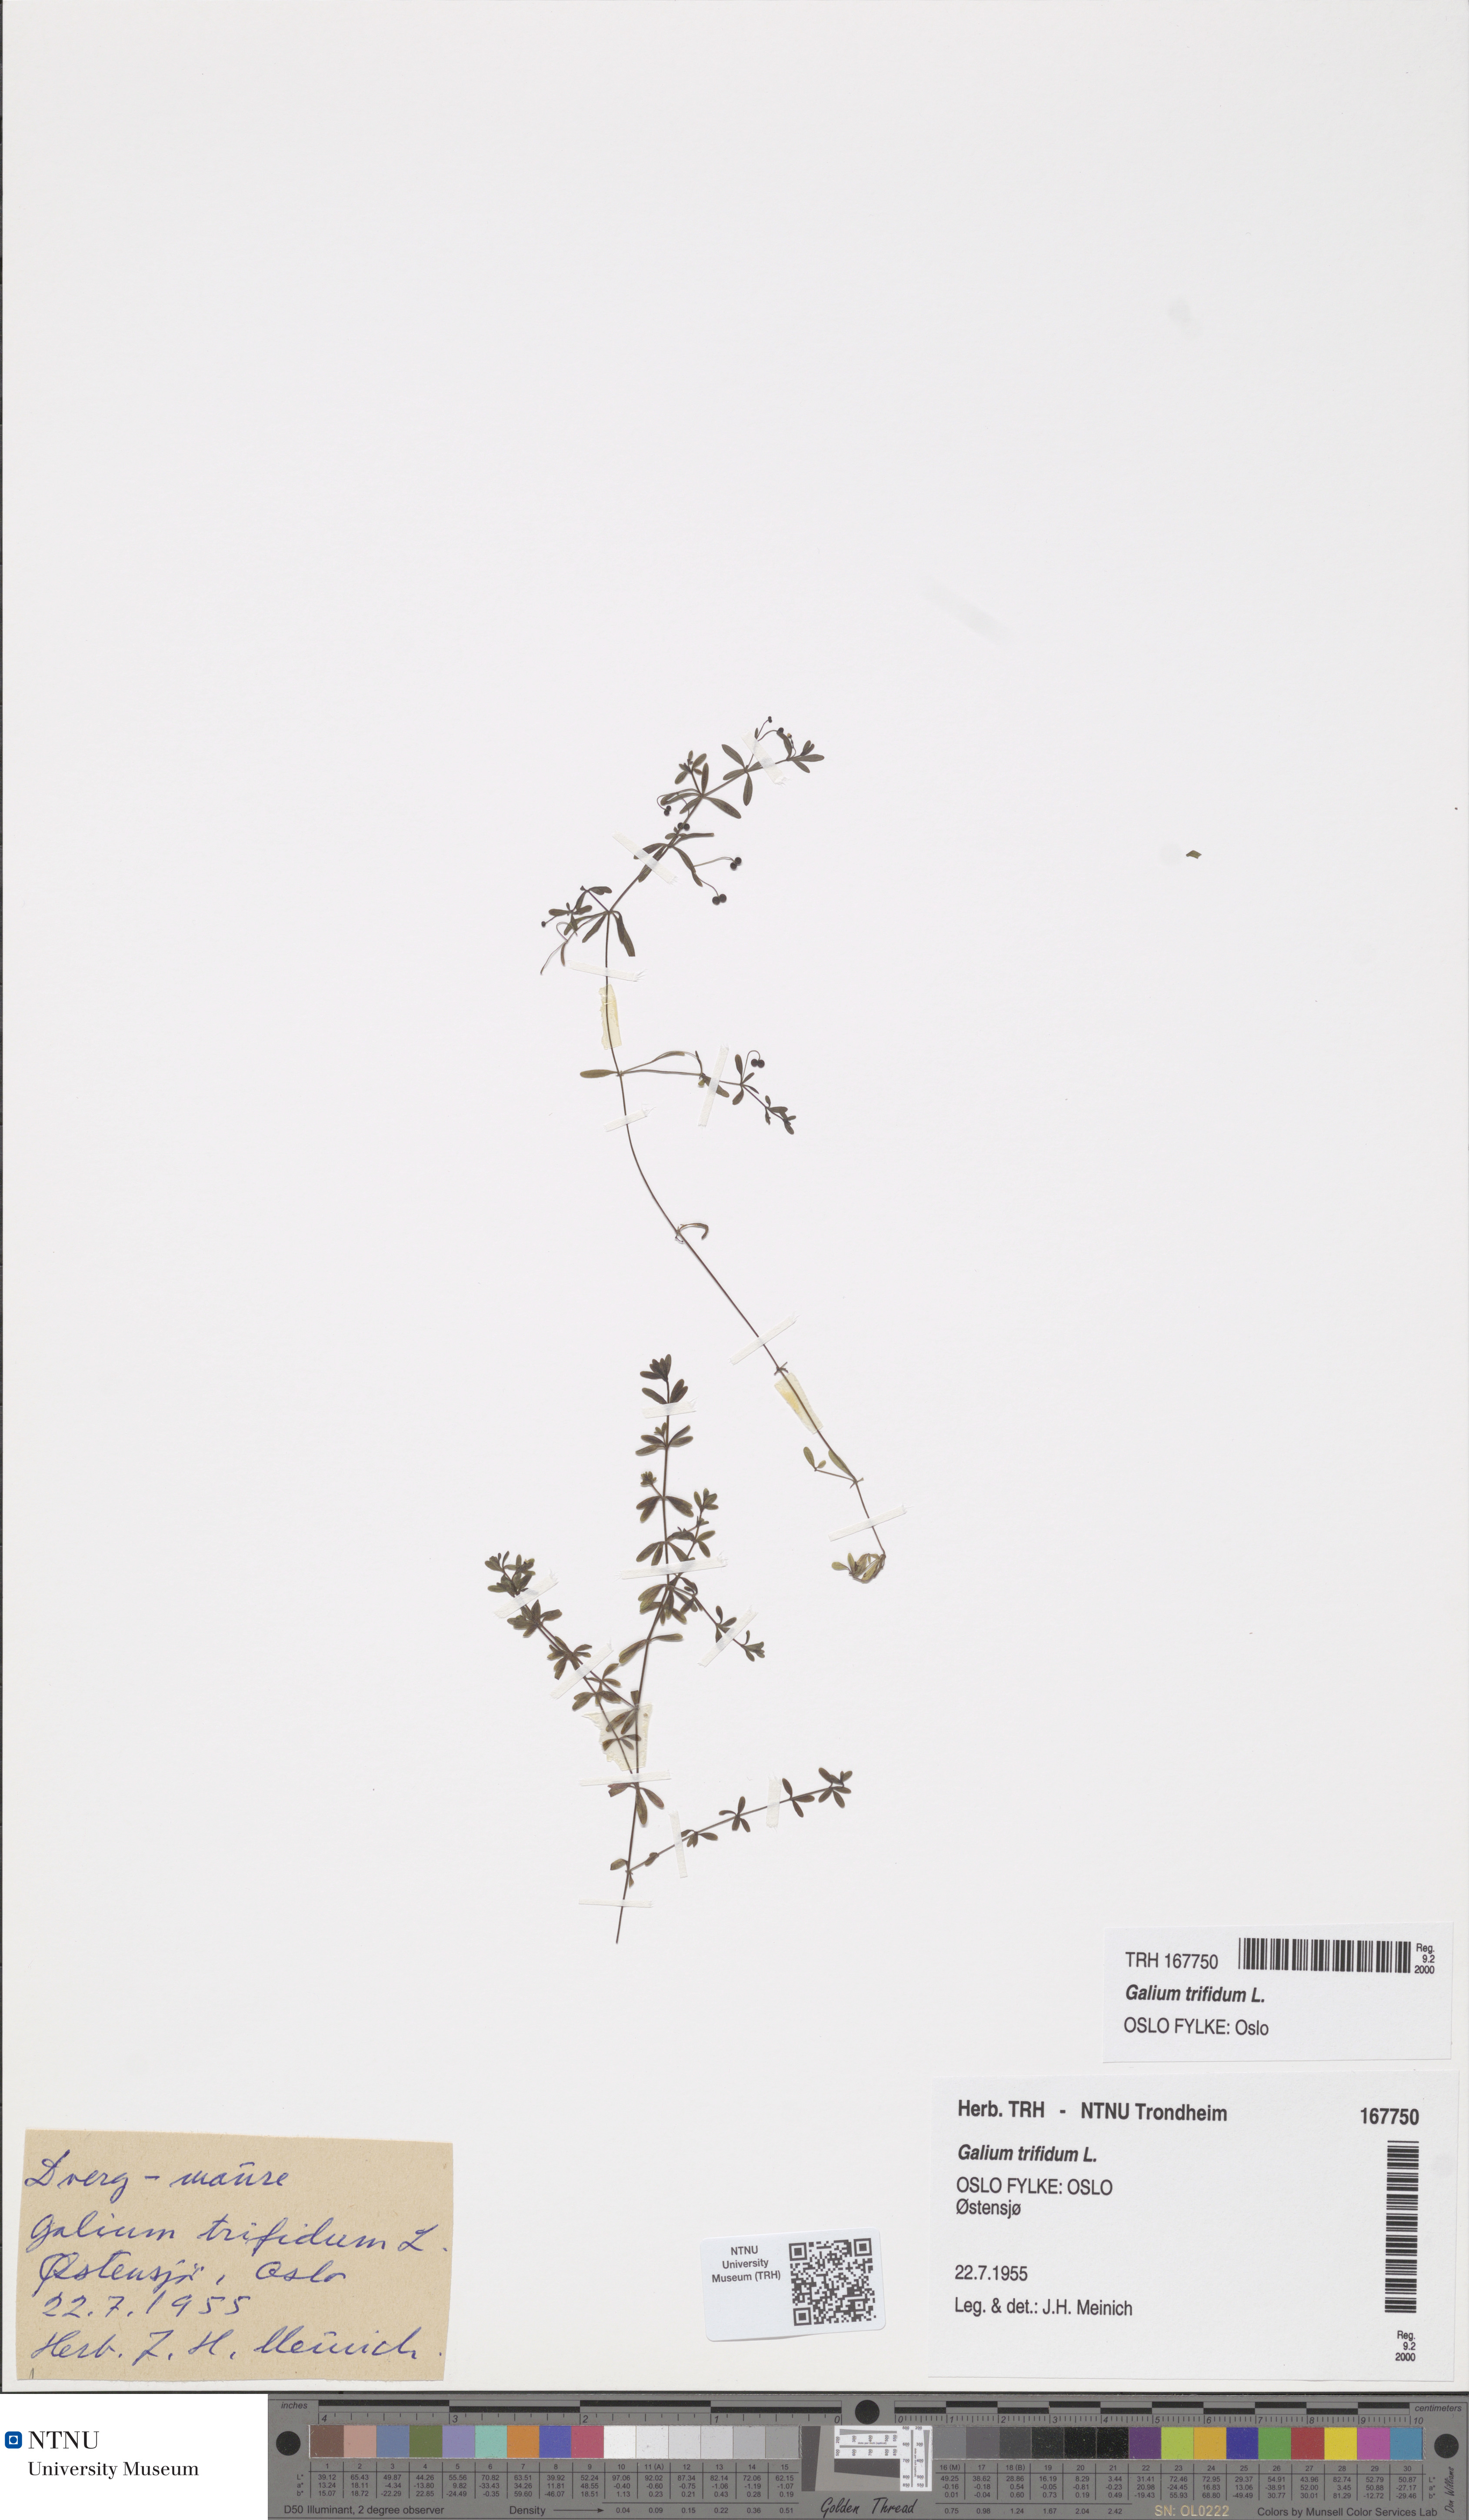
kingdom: Plantae
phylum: Tracheophyta
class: Magnoliopsida
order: Gentianales
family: Rubiaceae
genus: Galium
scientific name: Galium trifidum
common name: Small bedstraw
